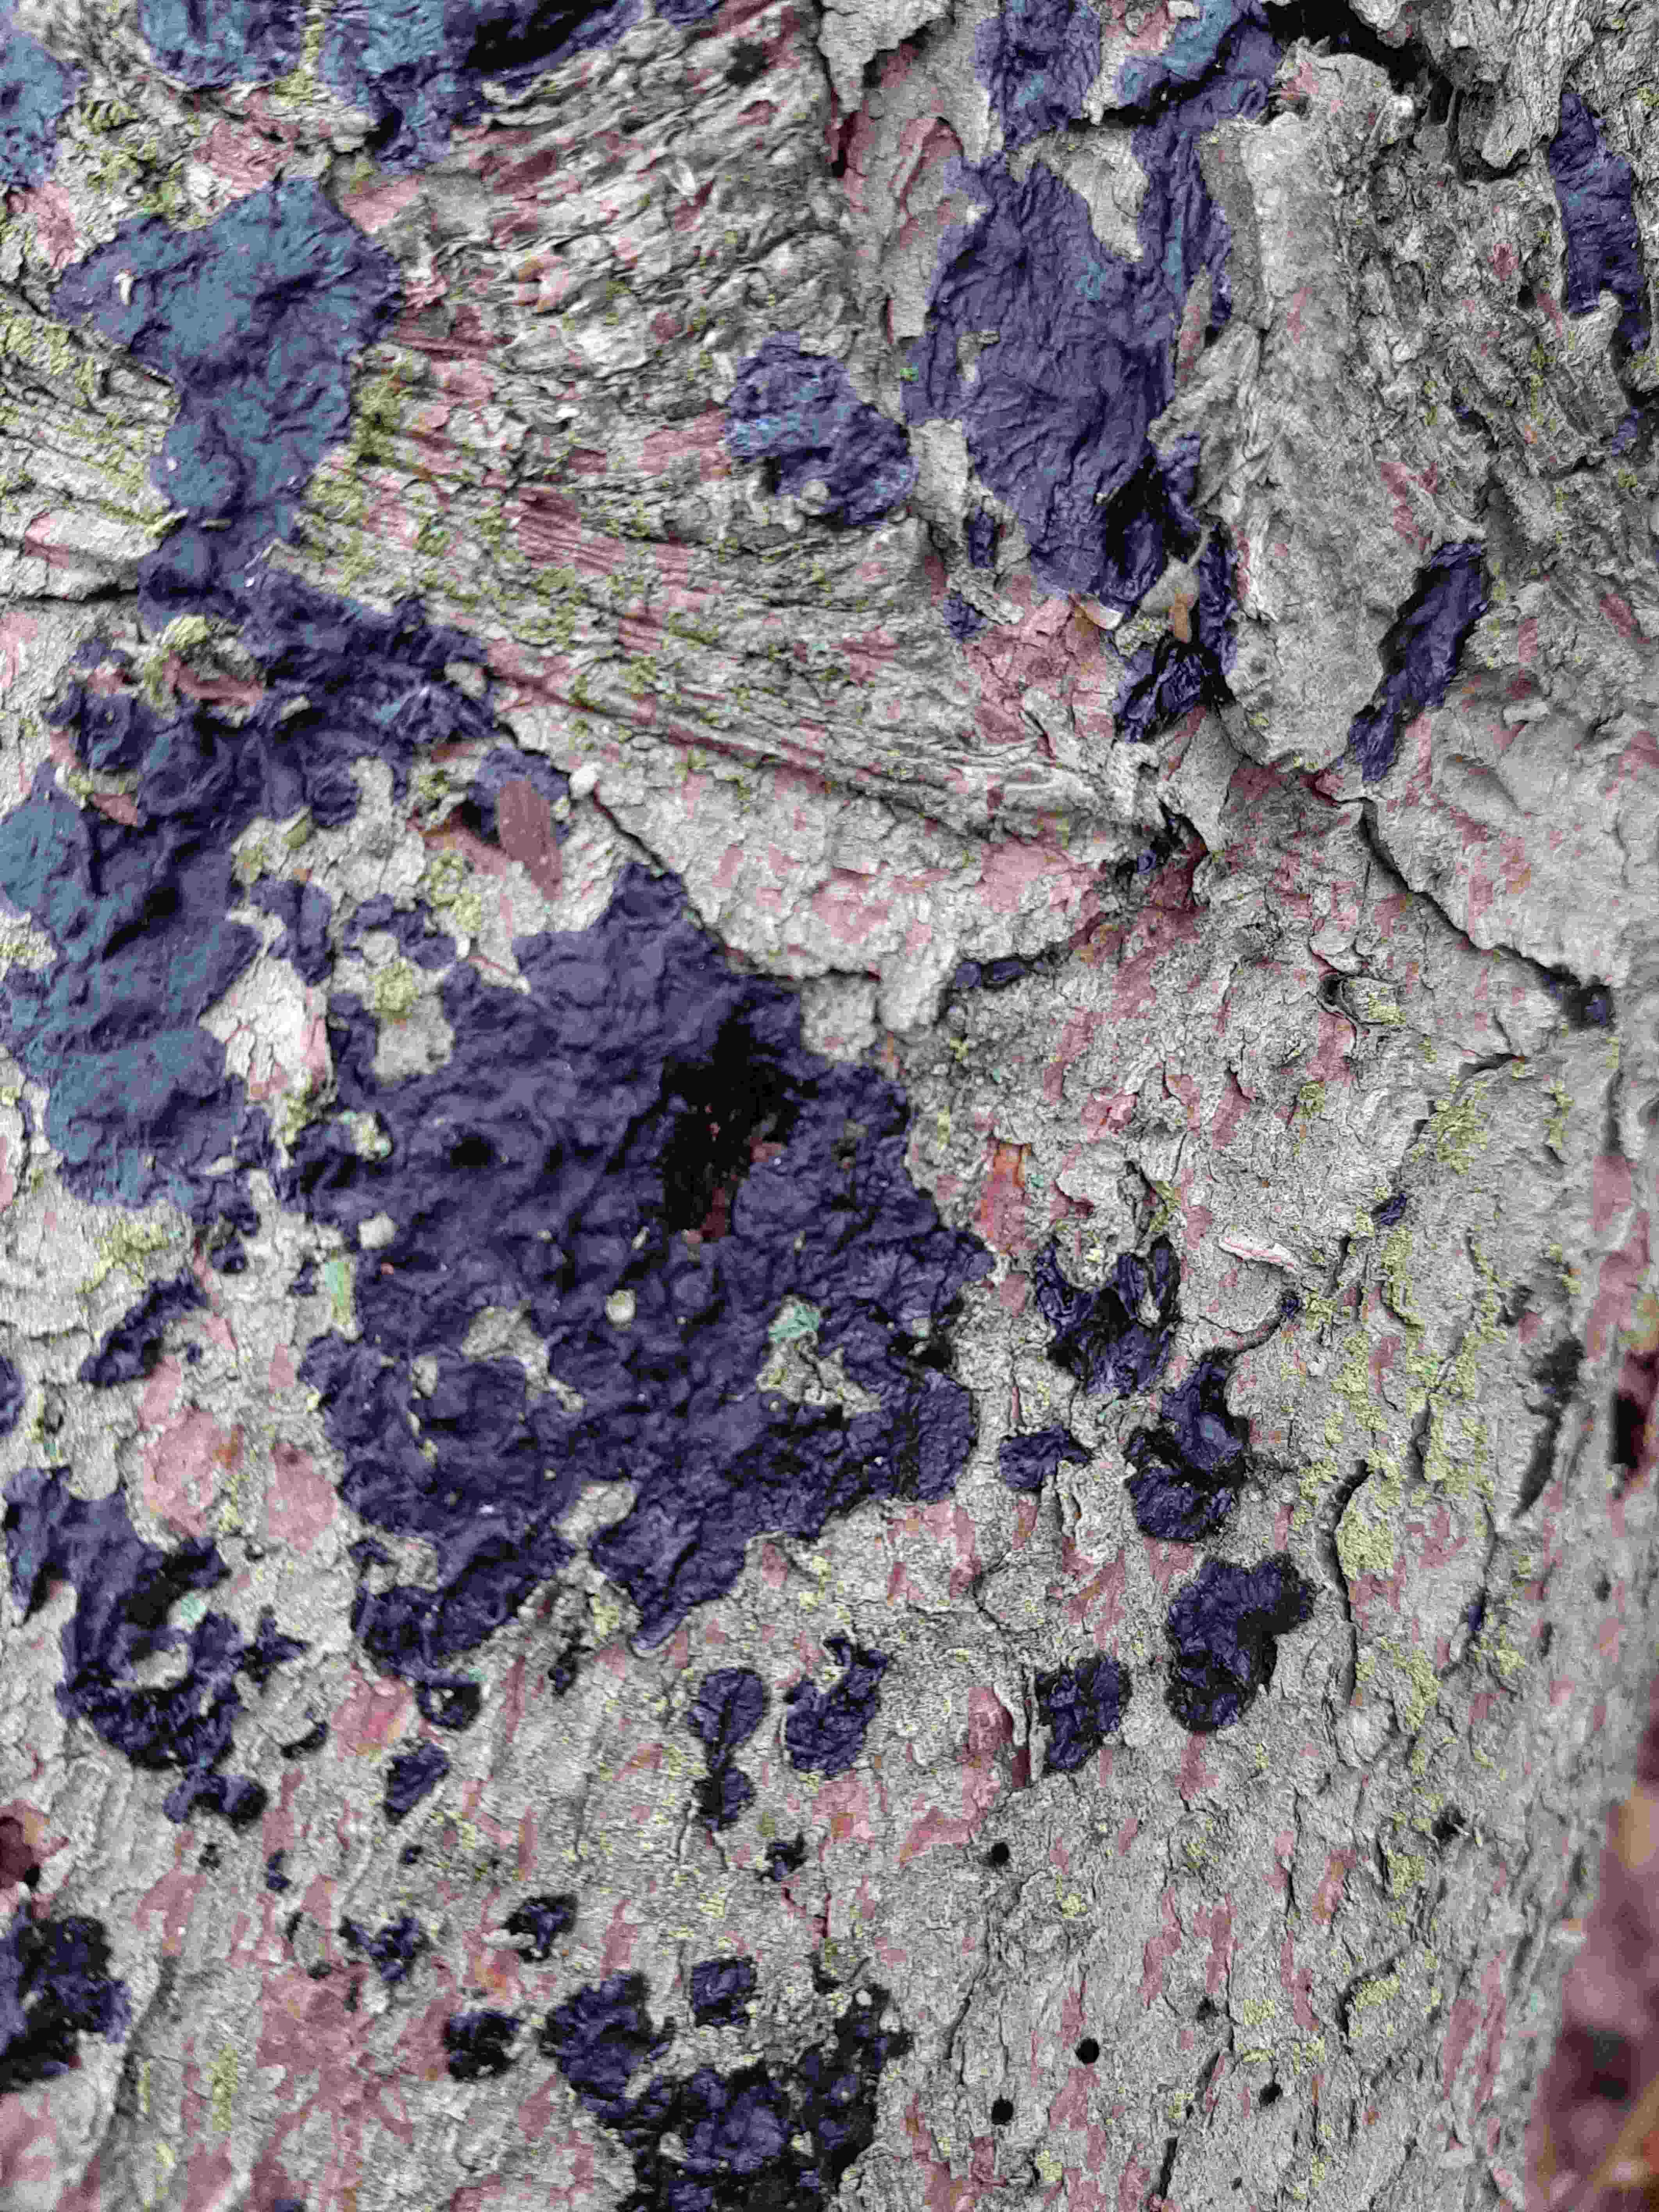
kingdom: Fungi
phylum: Basidiomycota
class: Agaricomycetes
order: Auriculariales
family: Auriculariaceae
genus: Exidia
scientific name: Exidia pithya
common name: gran-bævretop
